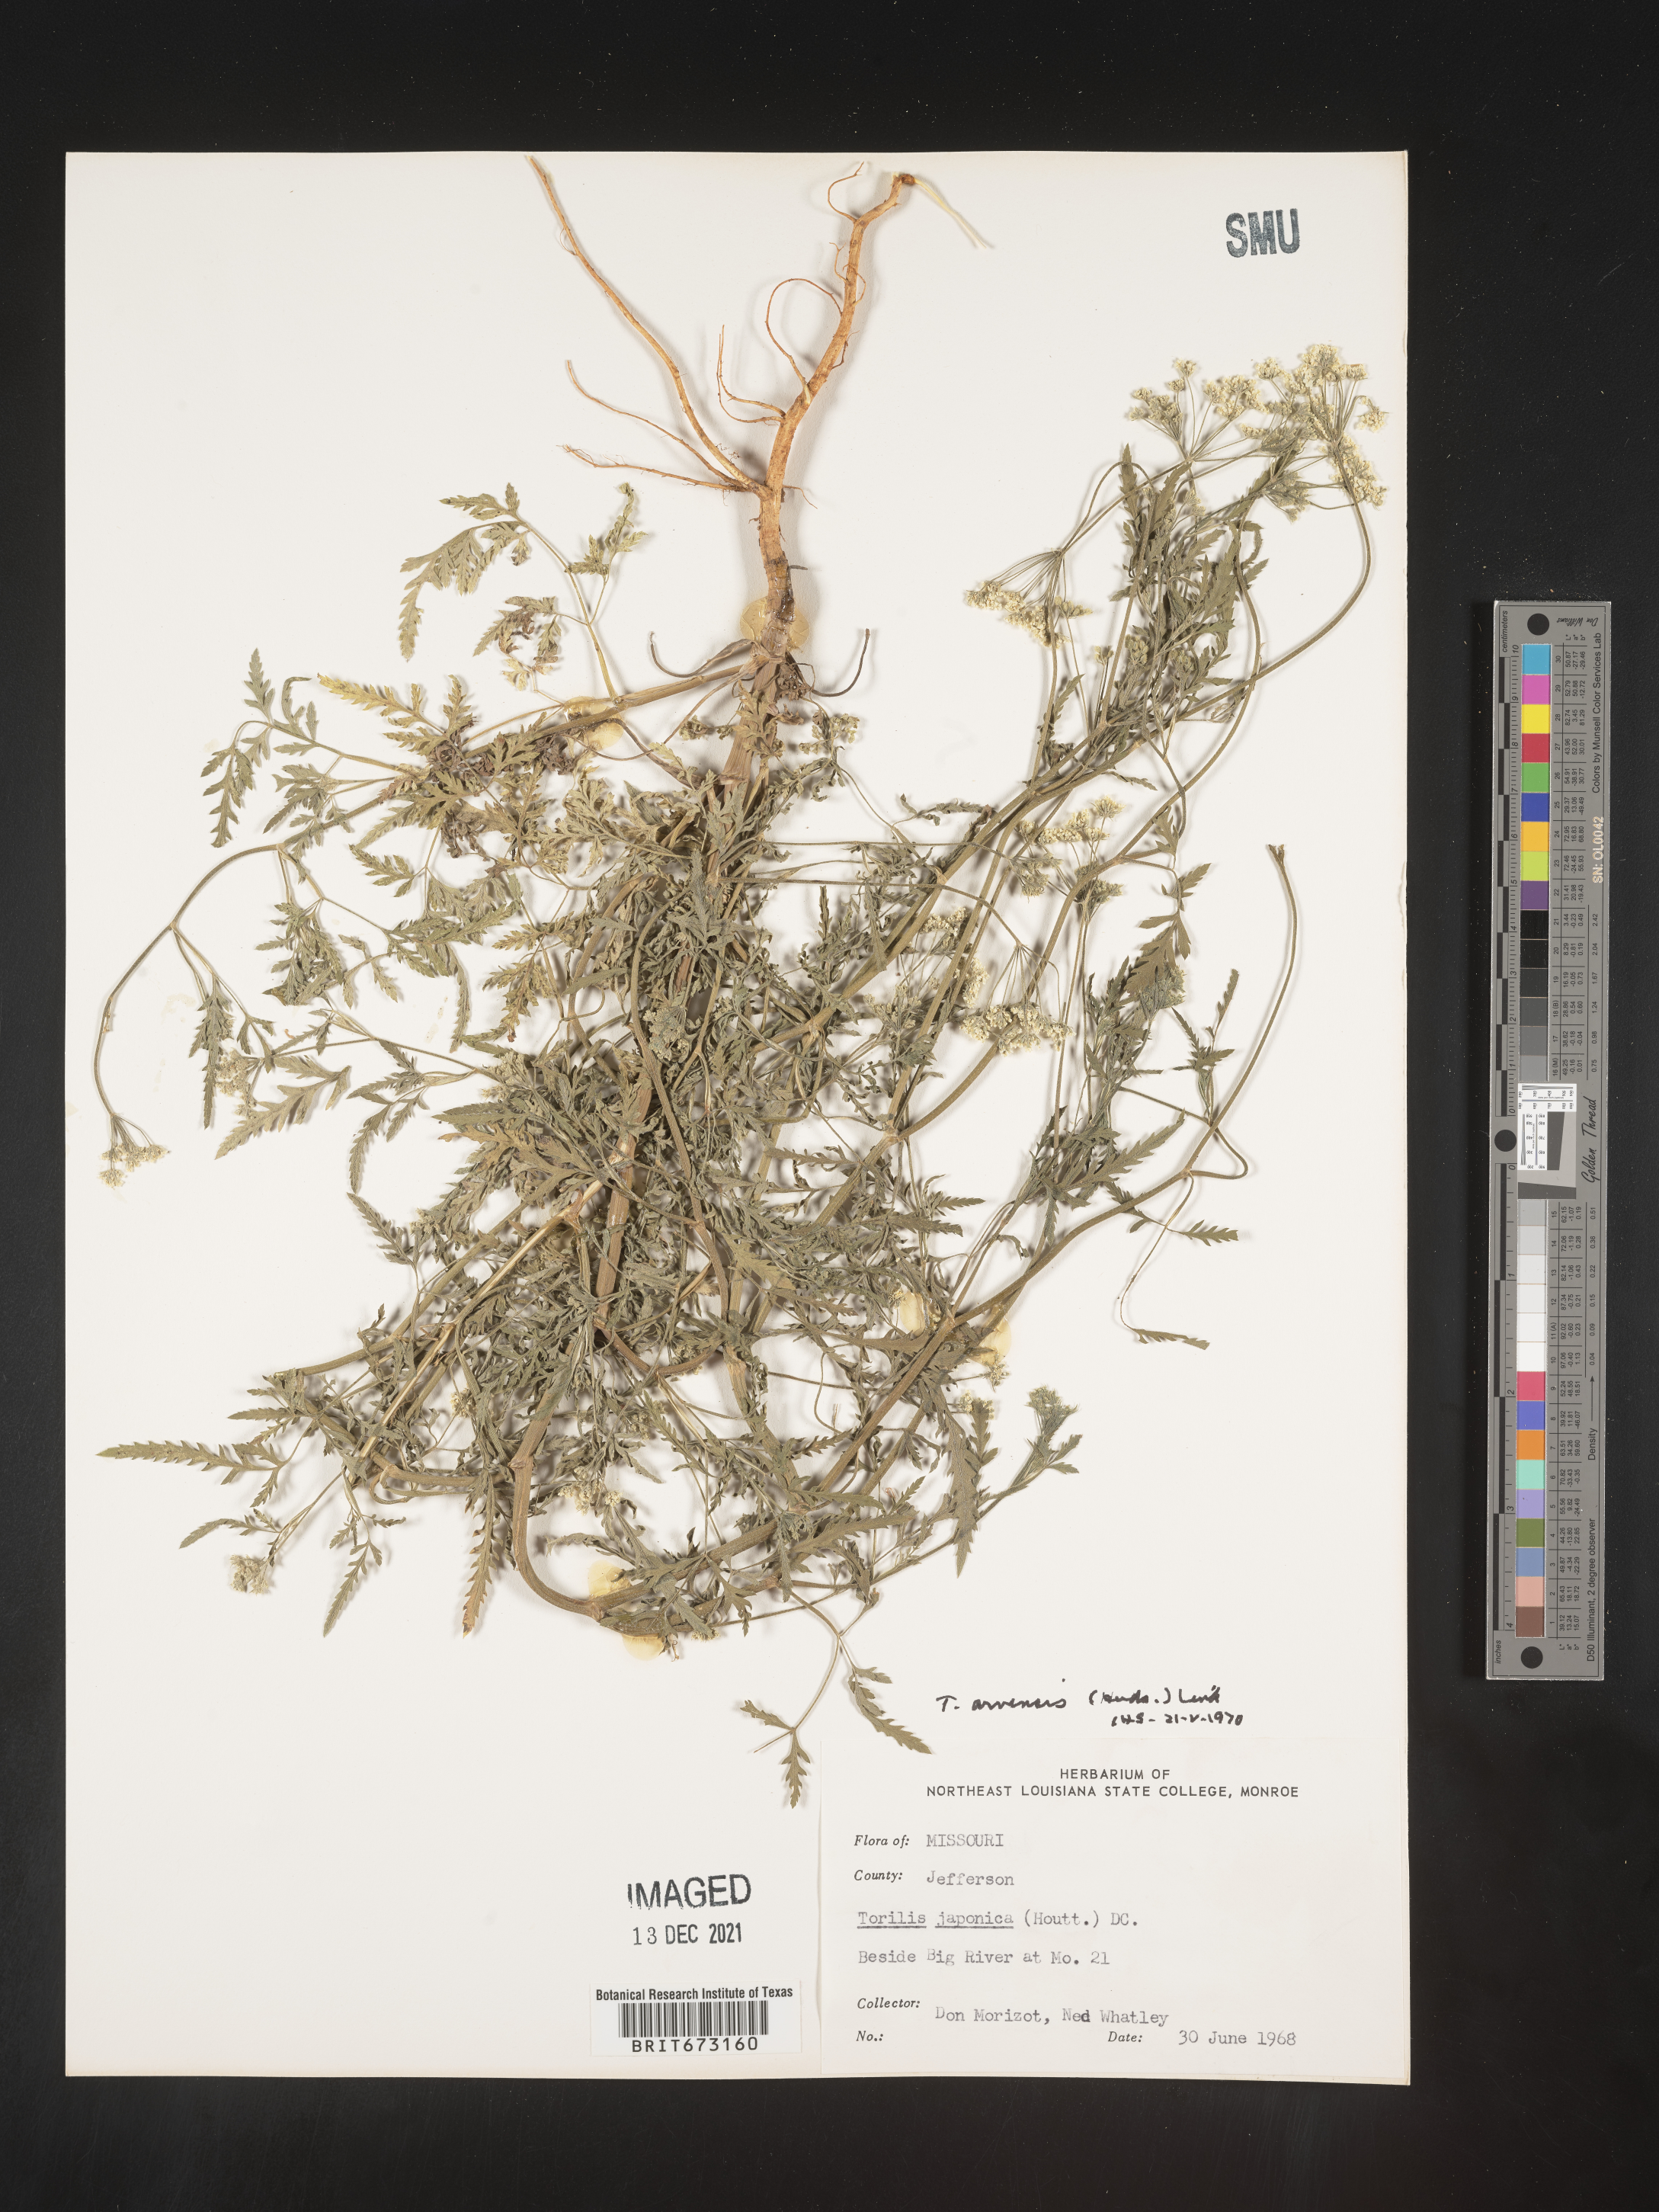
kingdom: Plantae
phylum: Tracheophyta
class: Magnoliopsida
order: Apiales
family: Apiaceae
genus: Torilis
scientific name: Torilis arvensis
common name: Spreading hedge-parsley
